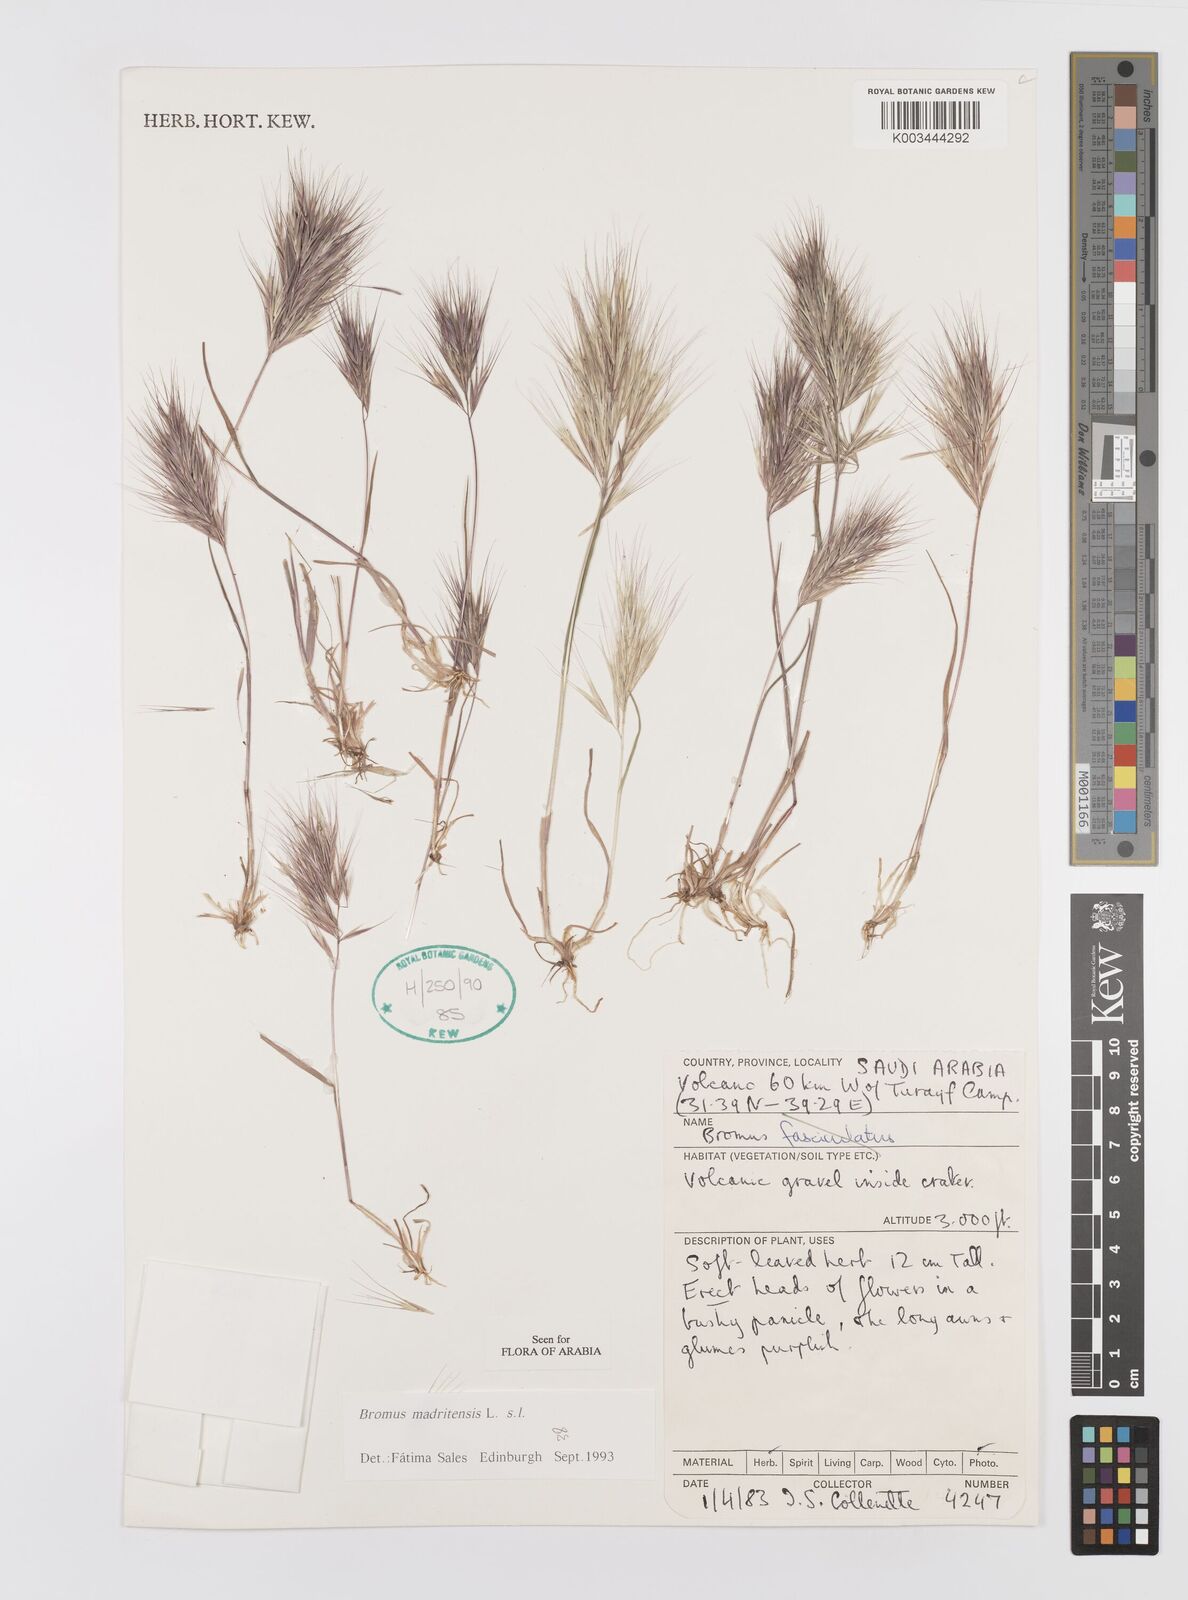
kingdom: Plantae
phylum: Tracheophyta
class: Liliopsida
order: Poales
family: Poaceae
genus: Bromus
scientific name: Bromus madritensis
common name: Compact brome
